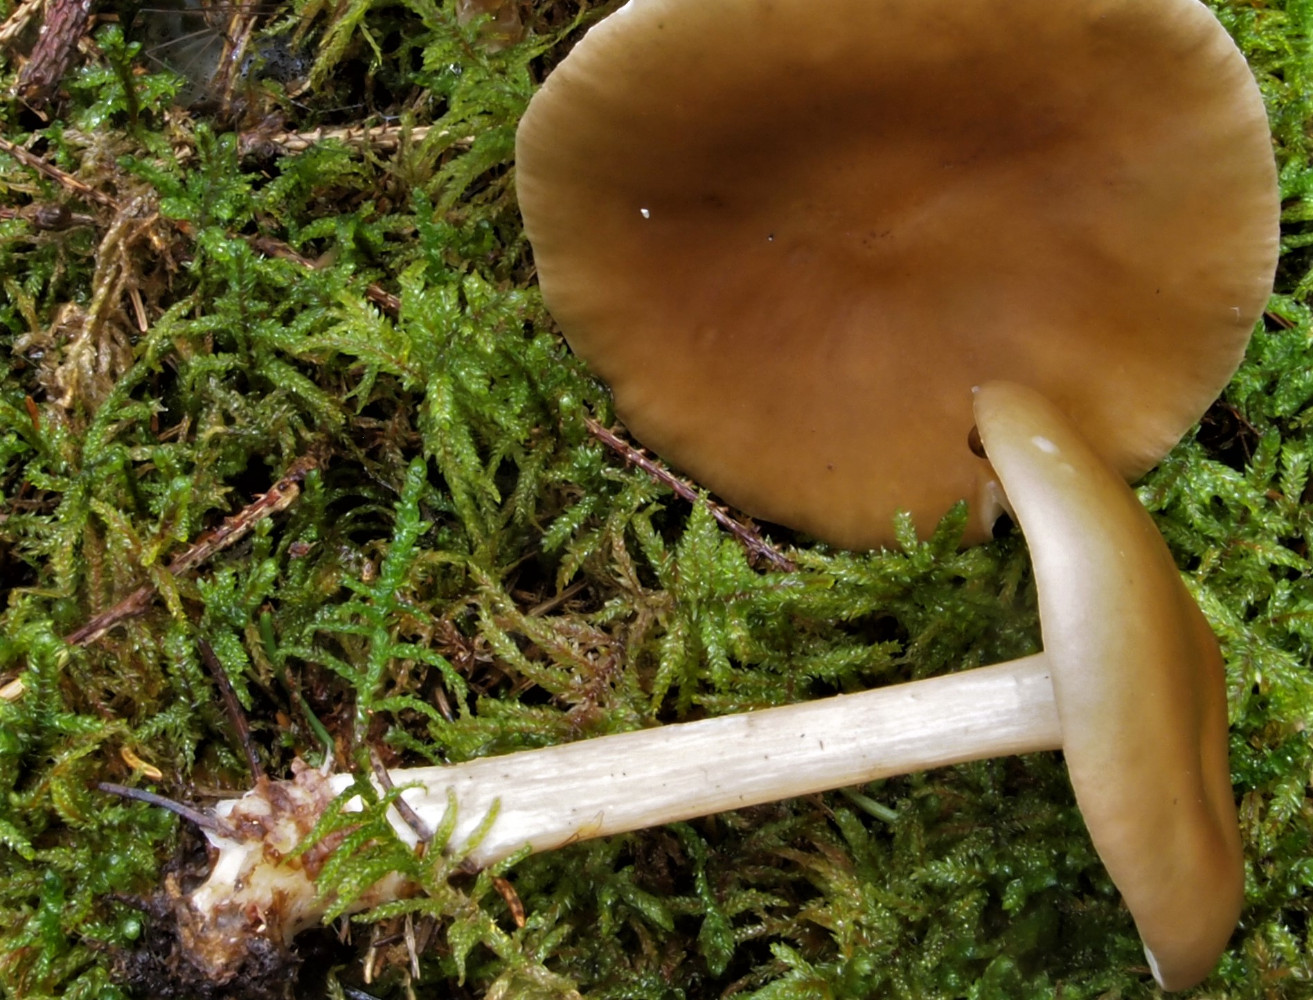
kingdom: Fungi
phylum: Basidiomycota
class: Agaricomycetes
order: Agaricales
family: Tricholomataceae
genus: Melanoleuca
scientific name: Melanoleuca
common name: munkehat
